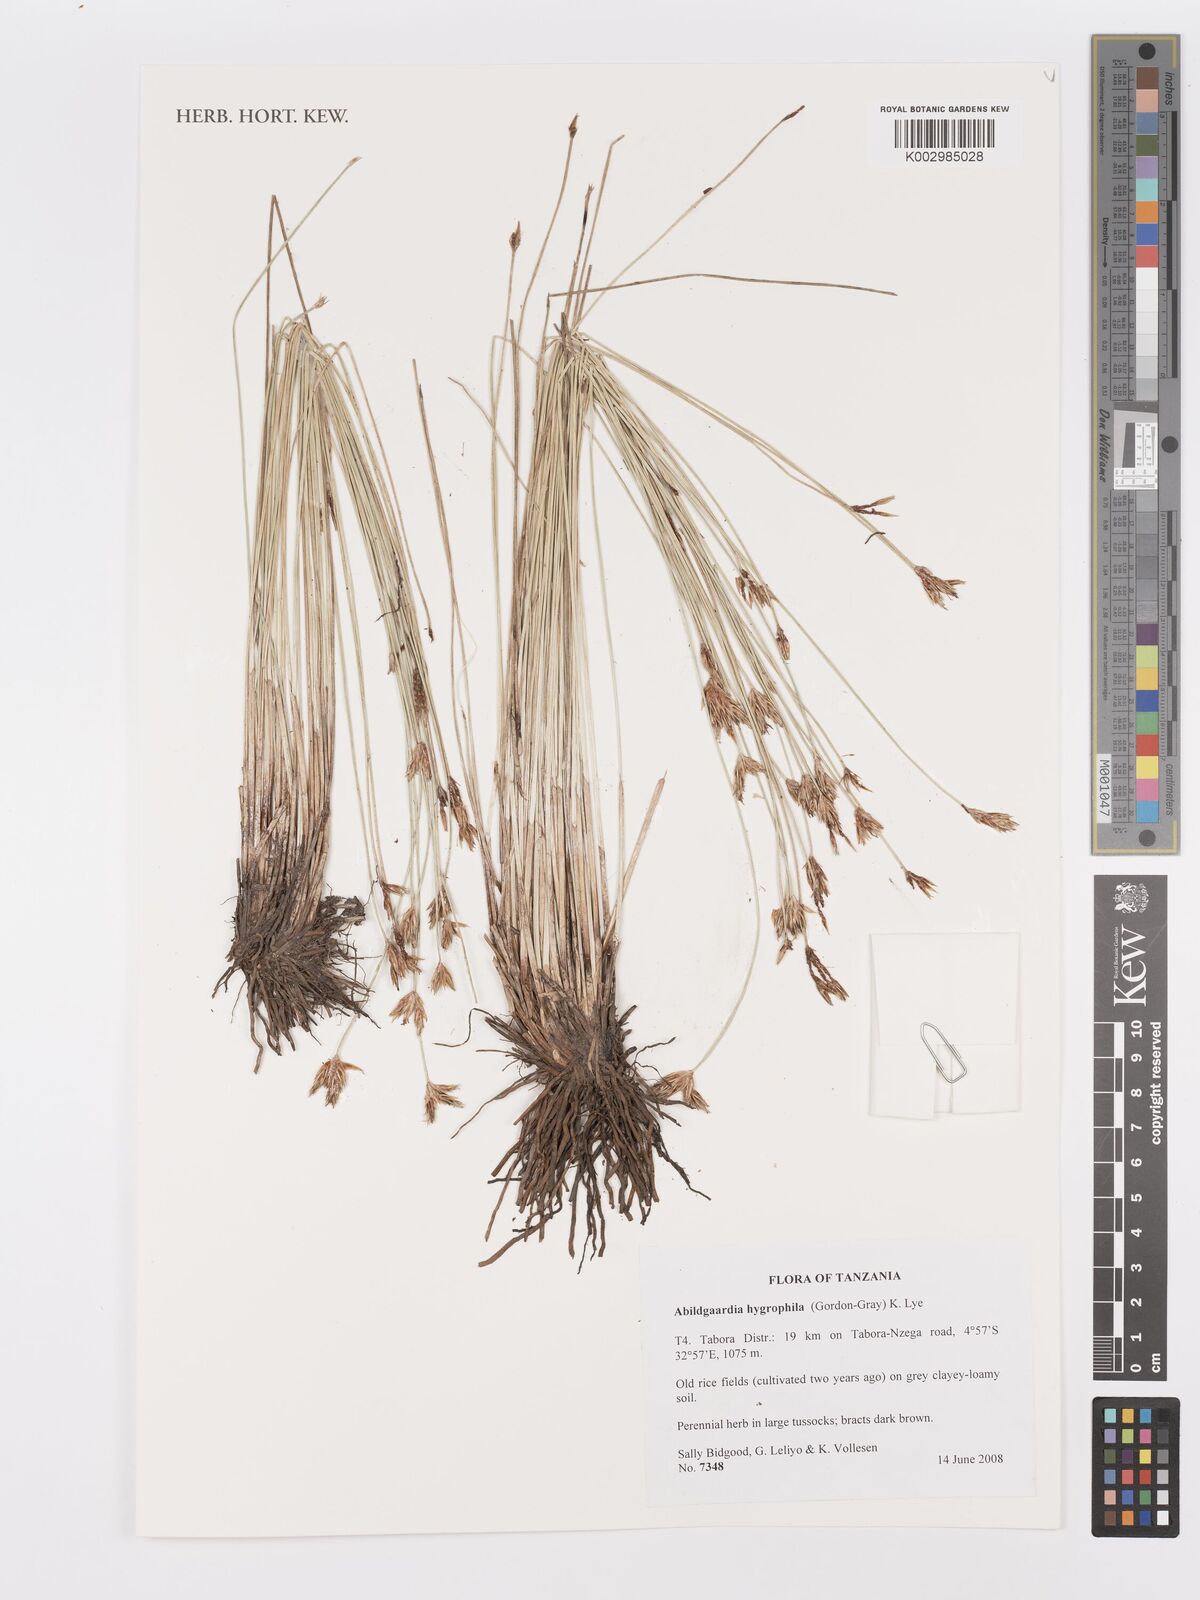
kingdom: Plantae
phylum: Tracheophyta
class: Liliopsida
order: Poales
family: Cyperaceae
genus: Zulustylis
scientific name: Zulustylis hygrophila
